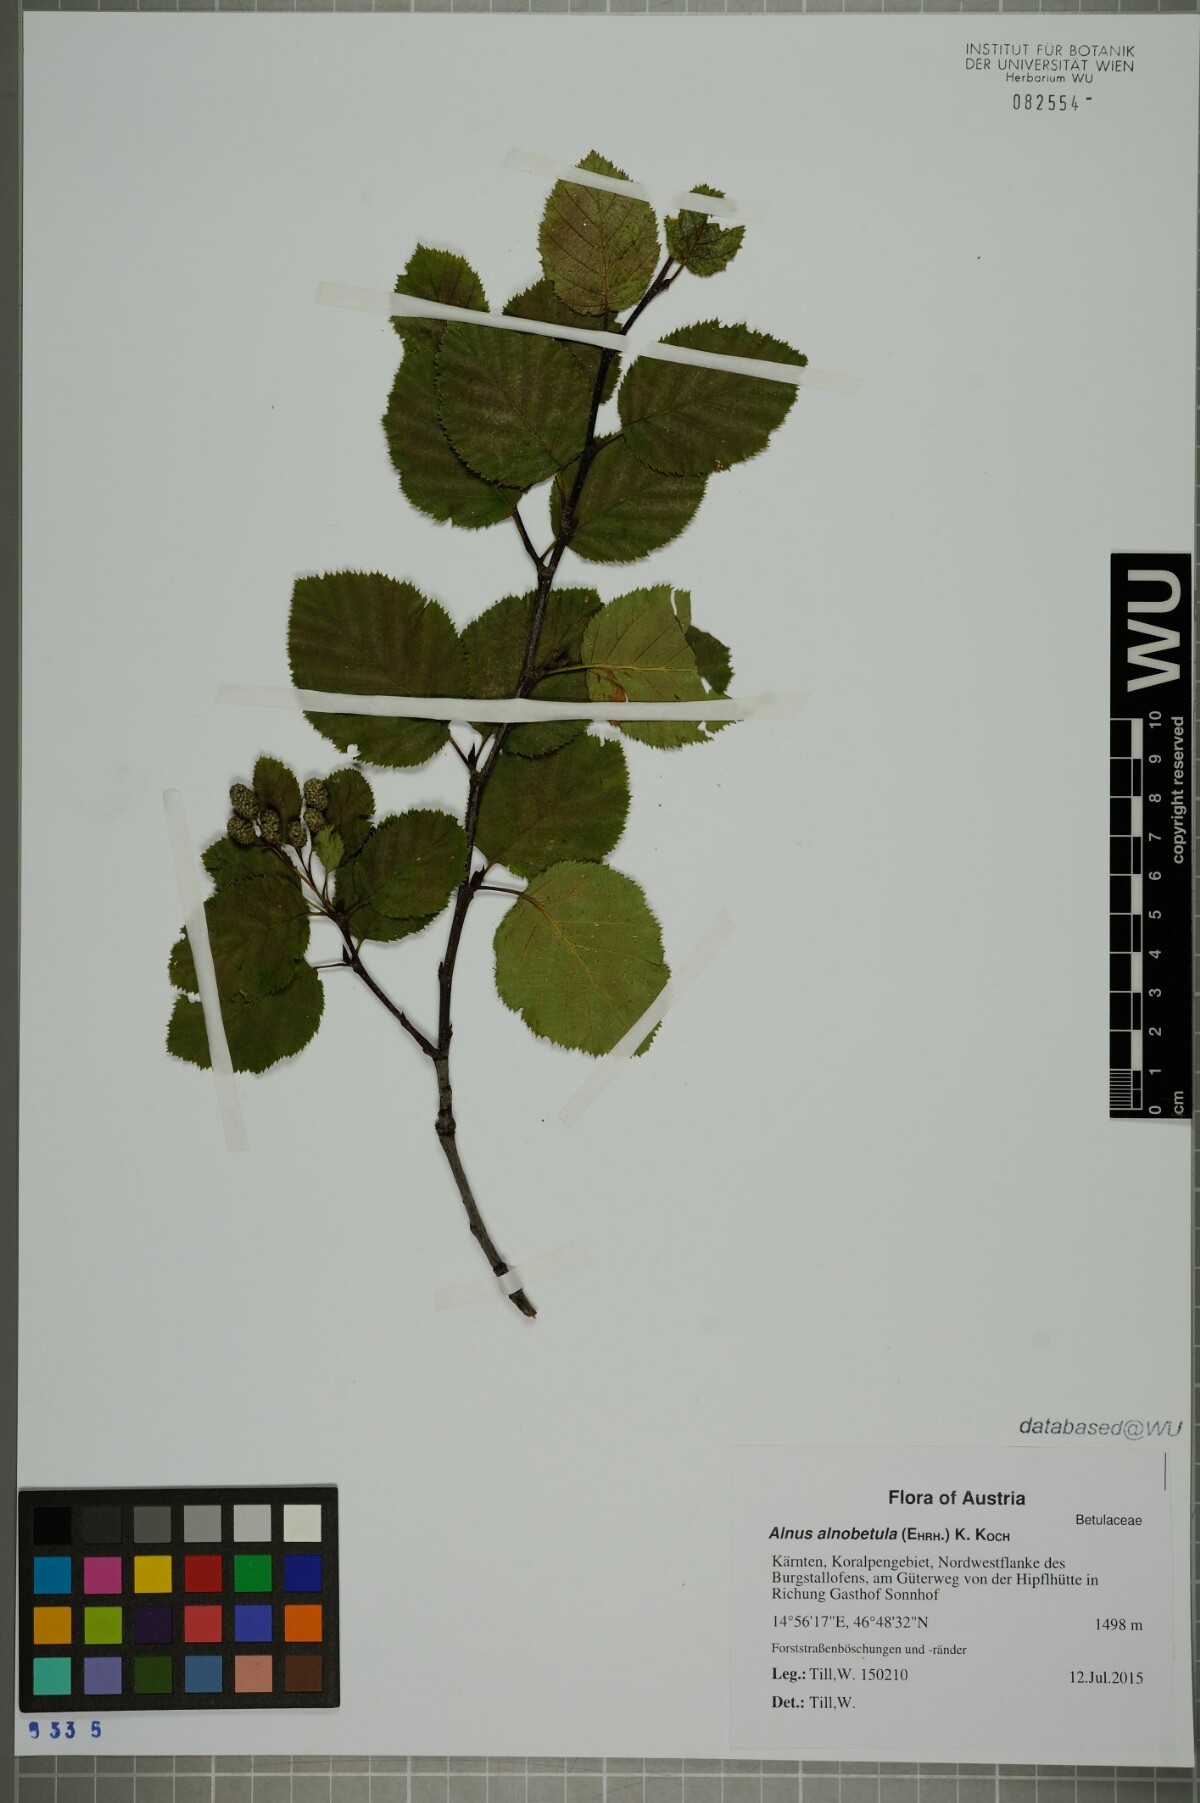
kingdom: Plantae
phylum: Tracheophyta
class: Magnoliopsida
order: Fagales
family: Betulaceae
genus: Alnus
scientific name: Alnus alnobetula
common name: Green alder
